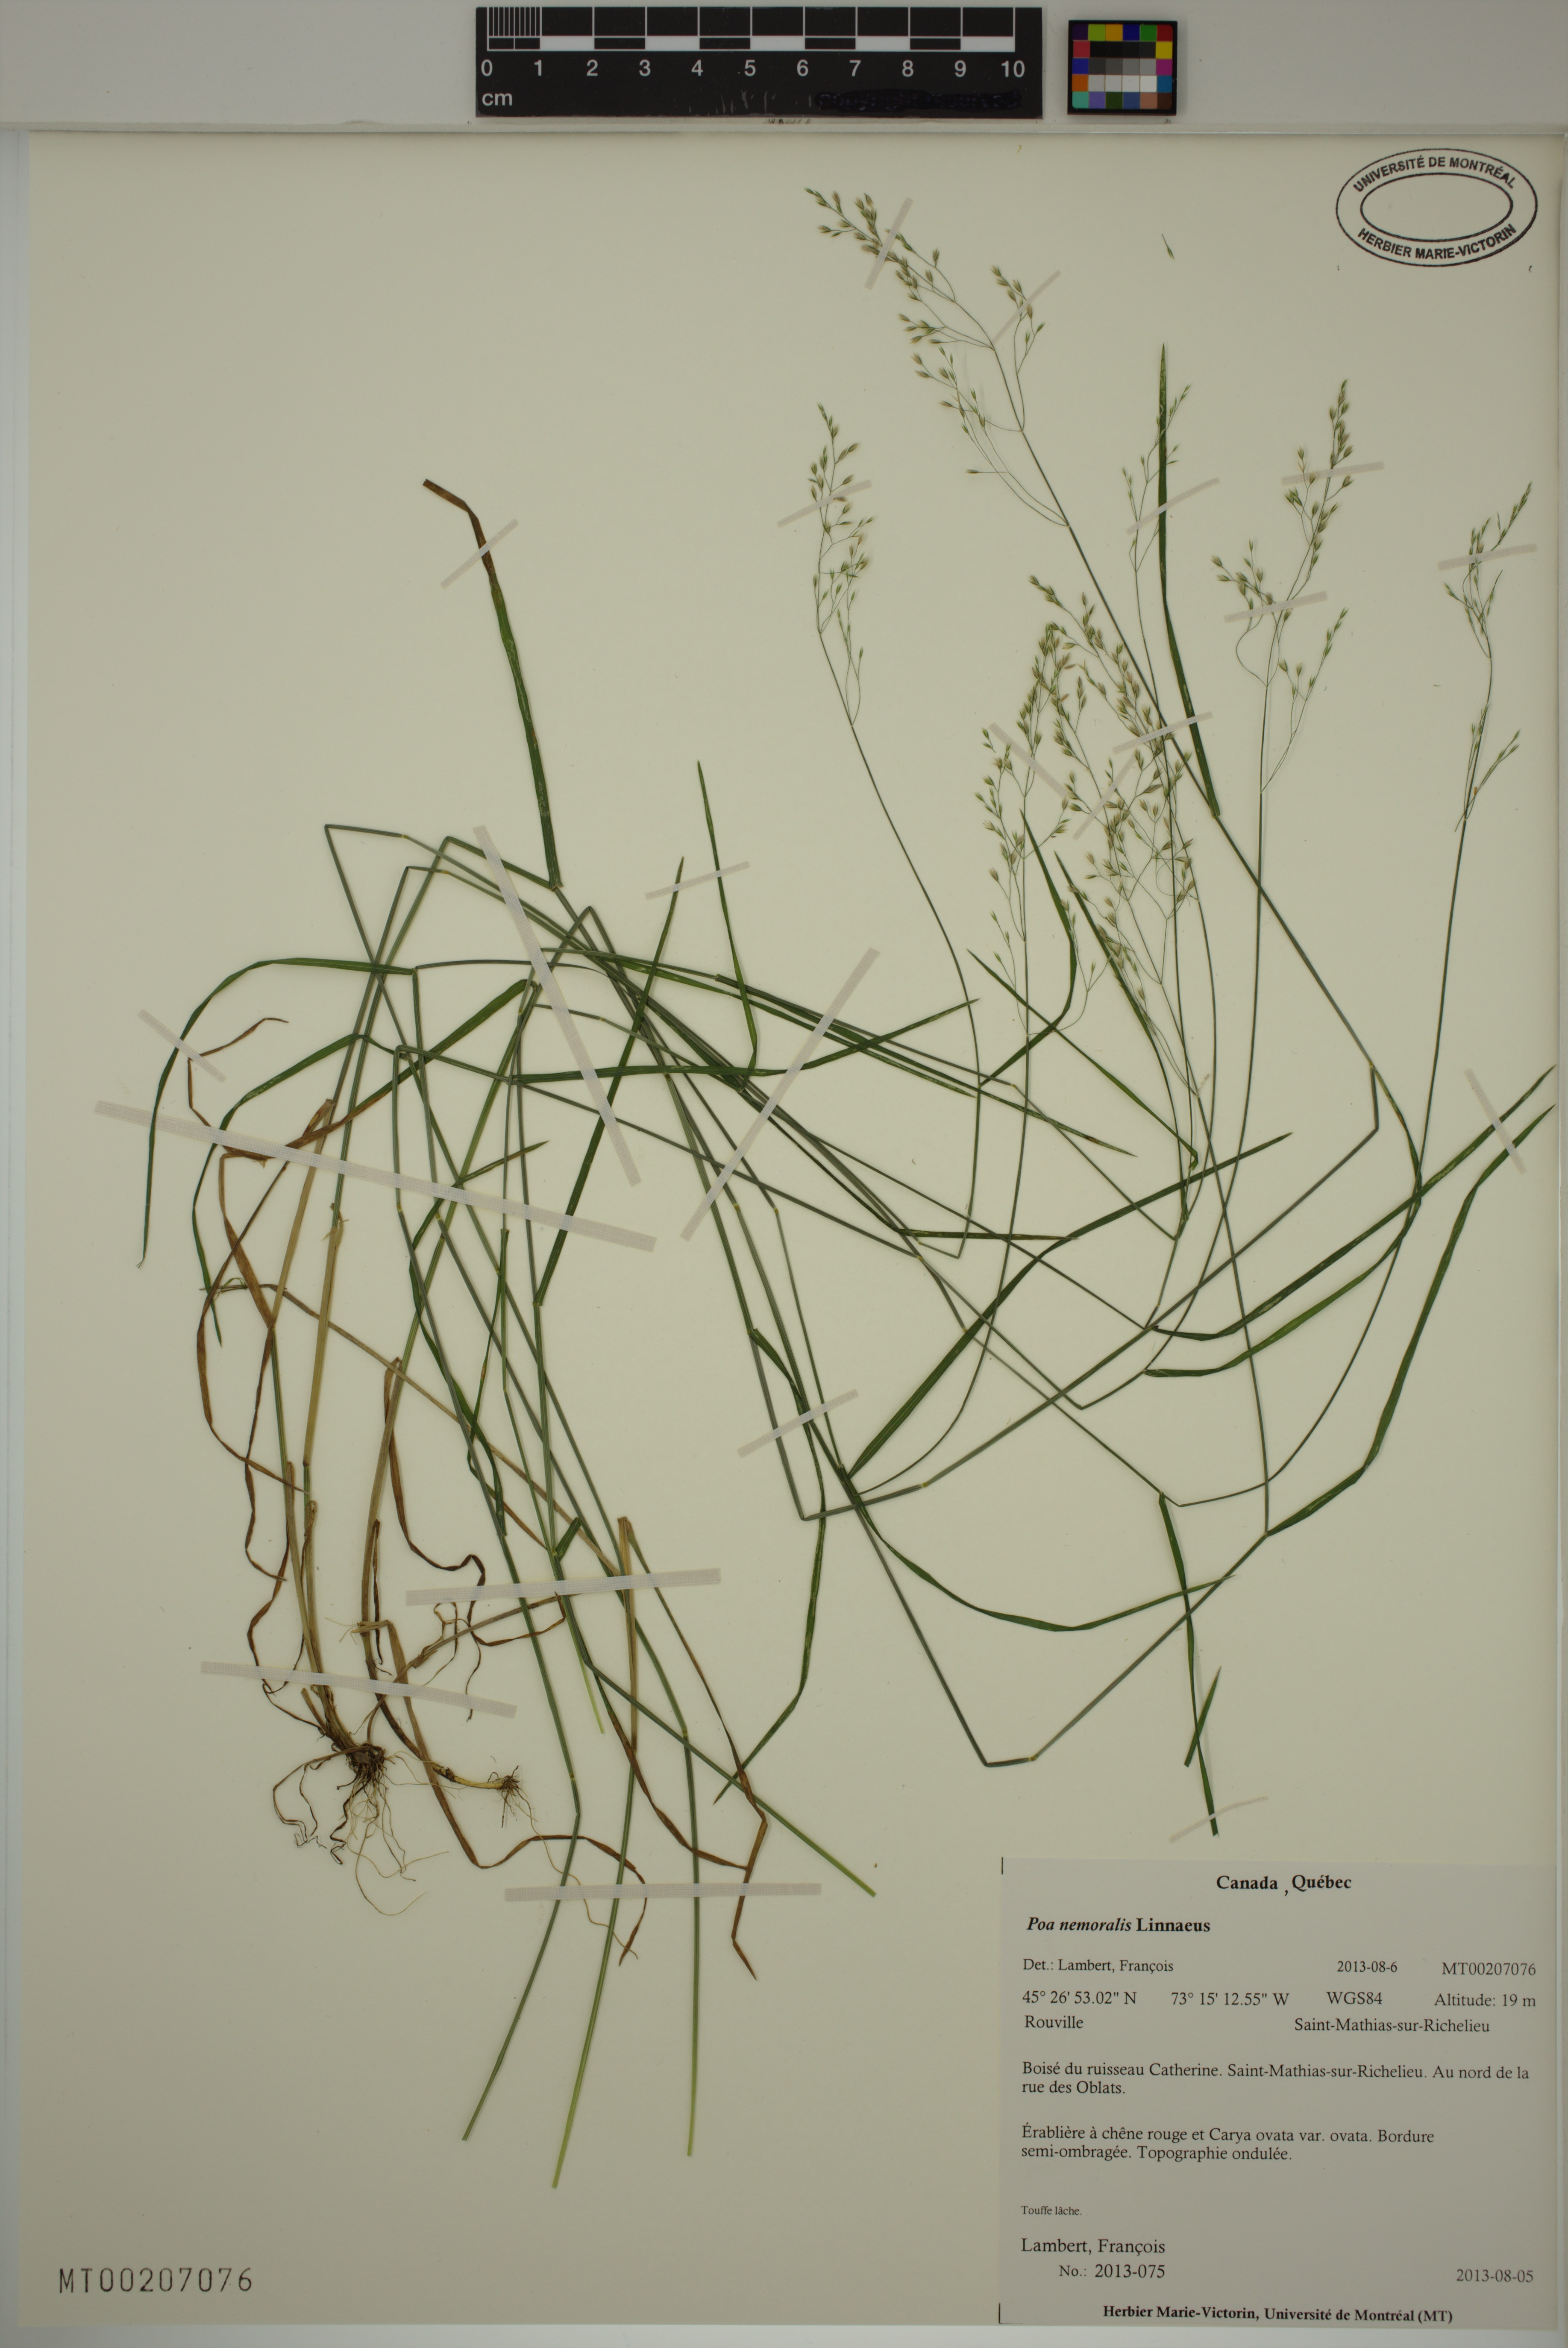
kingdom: Plantae
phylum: Tracheophyta
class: Liliopsida
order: Poales
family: Poaceae
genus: Poa
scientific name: Poa nemoralis
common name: Wood bluegrass
